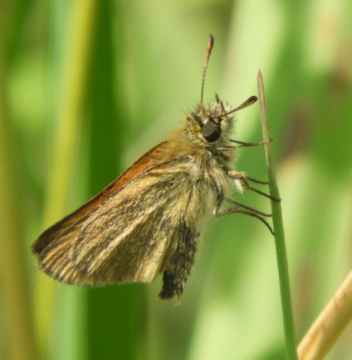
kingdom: Animalia
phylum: Arthropoda
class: Insecta
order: Lepidoptera
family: Hesperiidae
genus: Thymelicus
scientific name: Thymelicus lineola
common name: European Skipper
